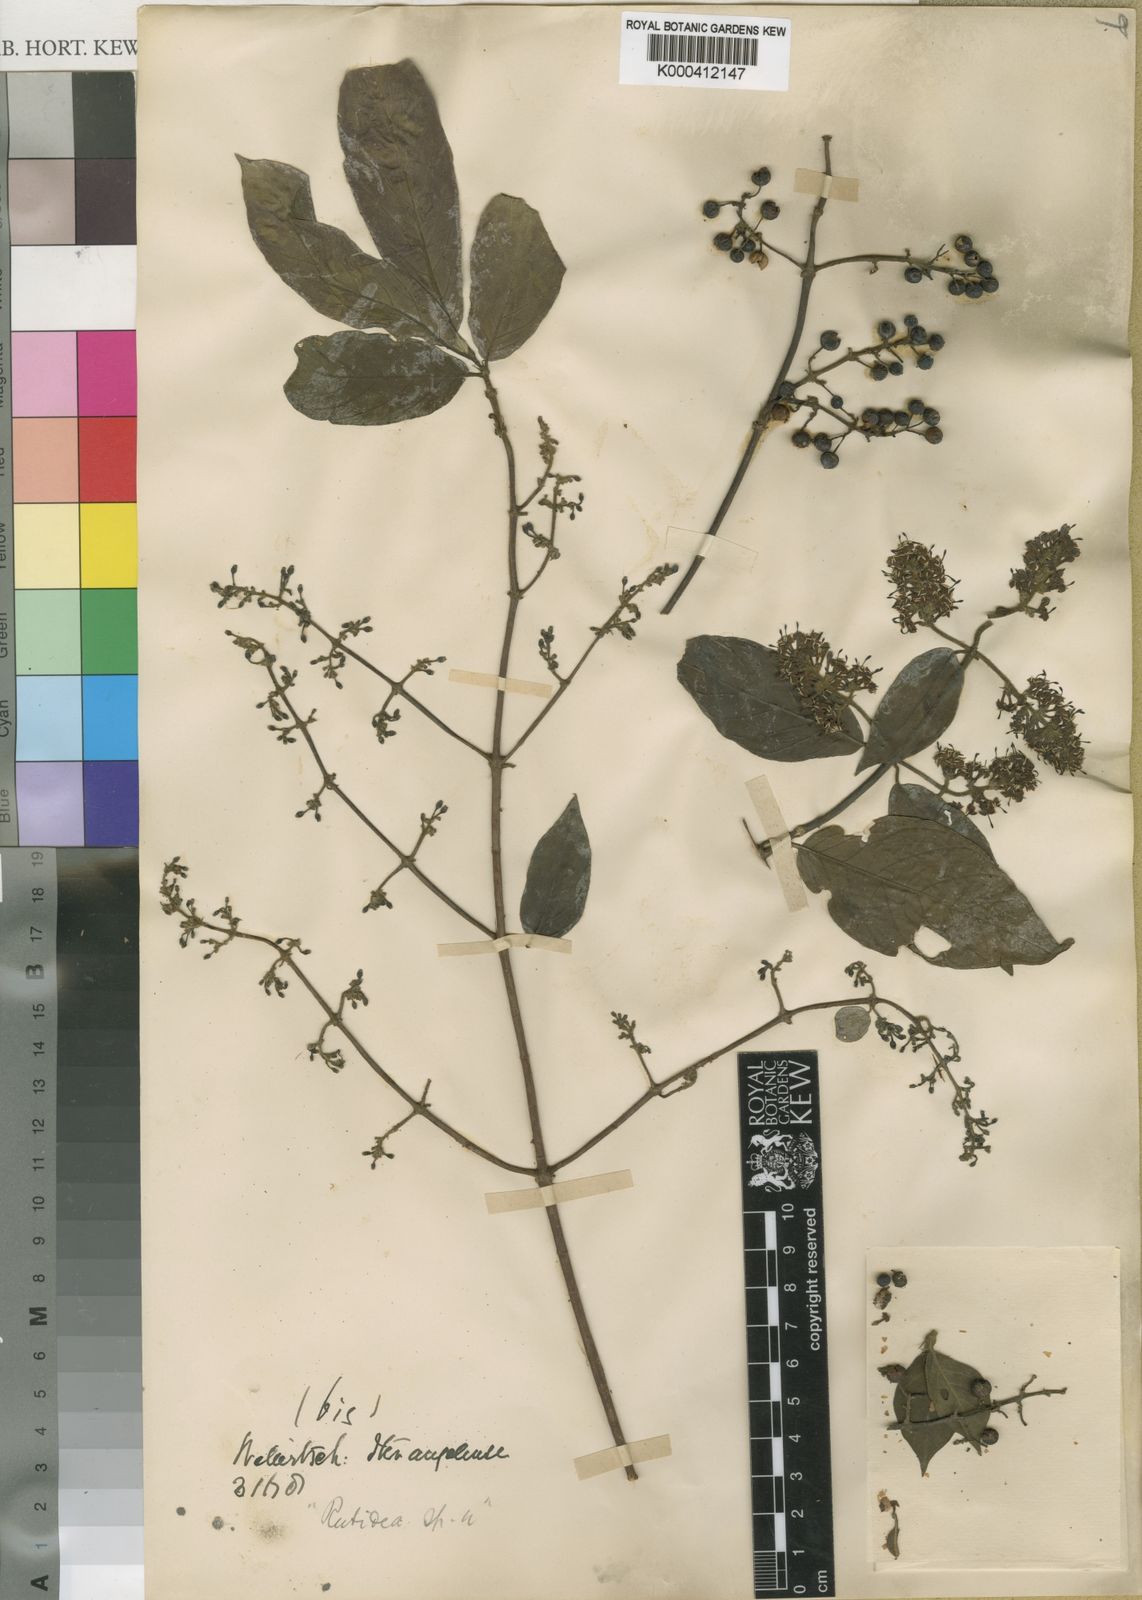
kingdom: Plantae
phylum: Tracheophyta
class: Magnoliopsida
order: Gentianales
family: Rubiaceae
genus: Rutidea
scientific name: Rutidea smithii
